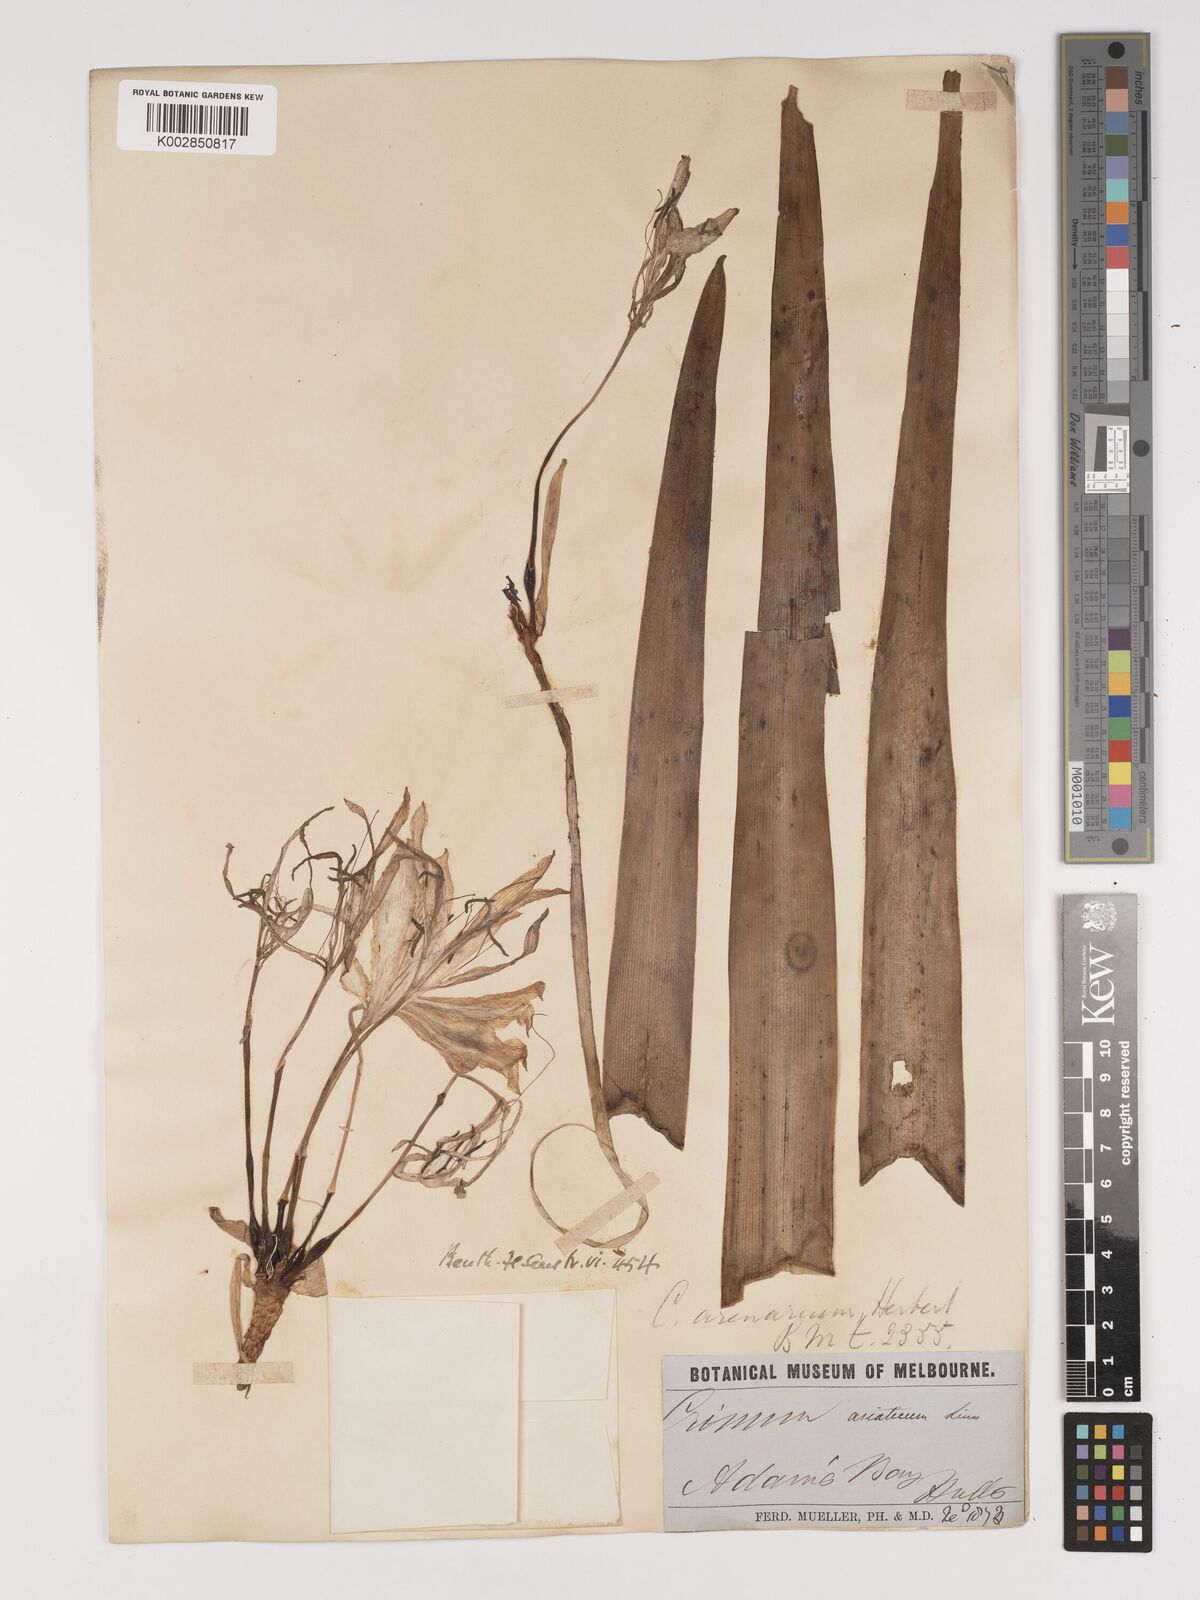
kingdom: Plantae
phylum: Tracheophyta
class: Liliopsida
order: Asparagales
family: Amaryllidaceae
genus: Crinum
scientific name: Crinum arenarium
